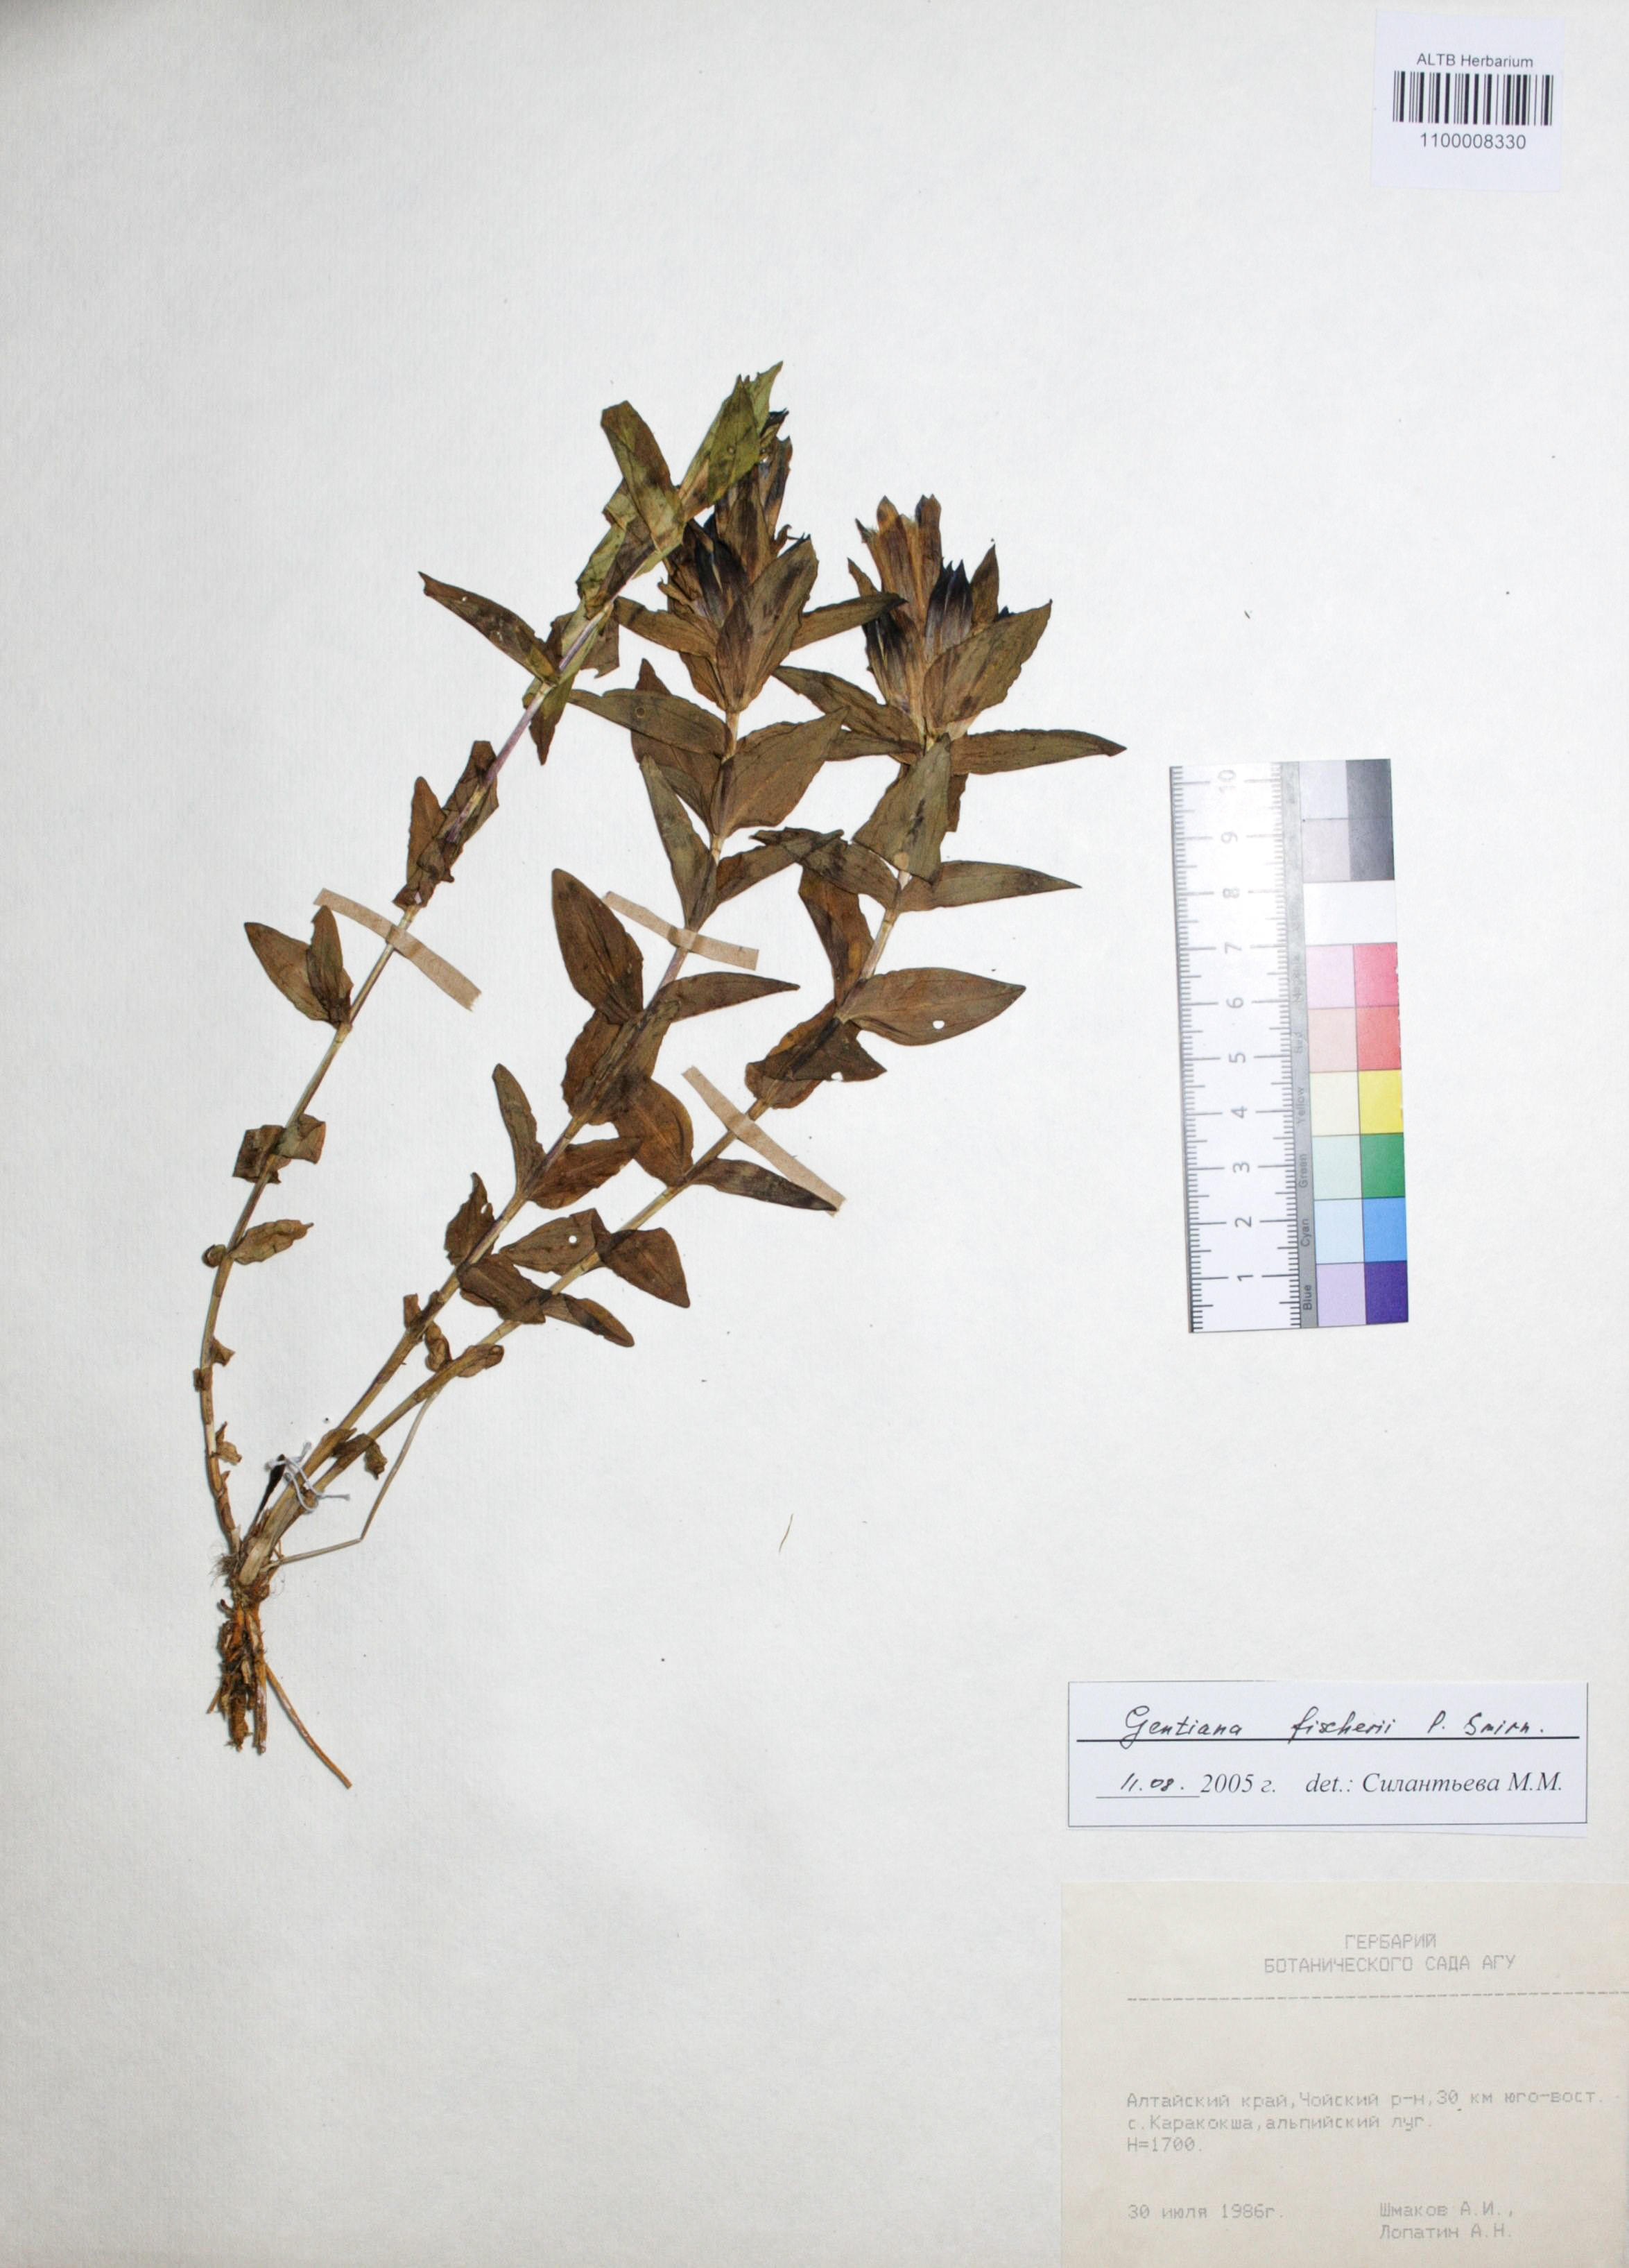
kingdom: Plantae
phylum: Tracheophyta
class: Magnoliopsida
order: Gentianales
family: Gentianaceae
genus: Gentiana
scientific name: Gentiana dschungarica
